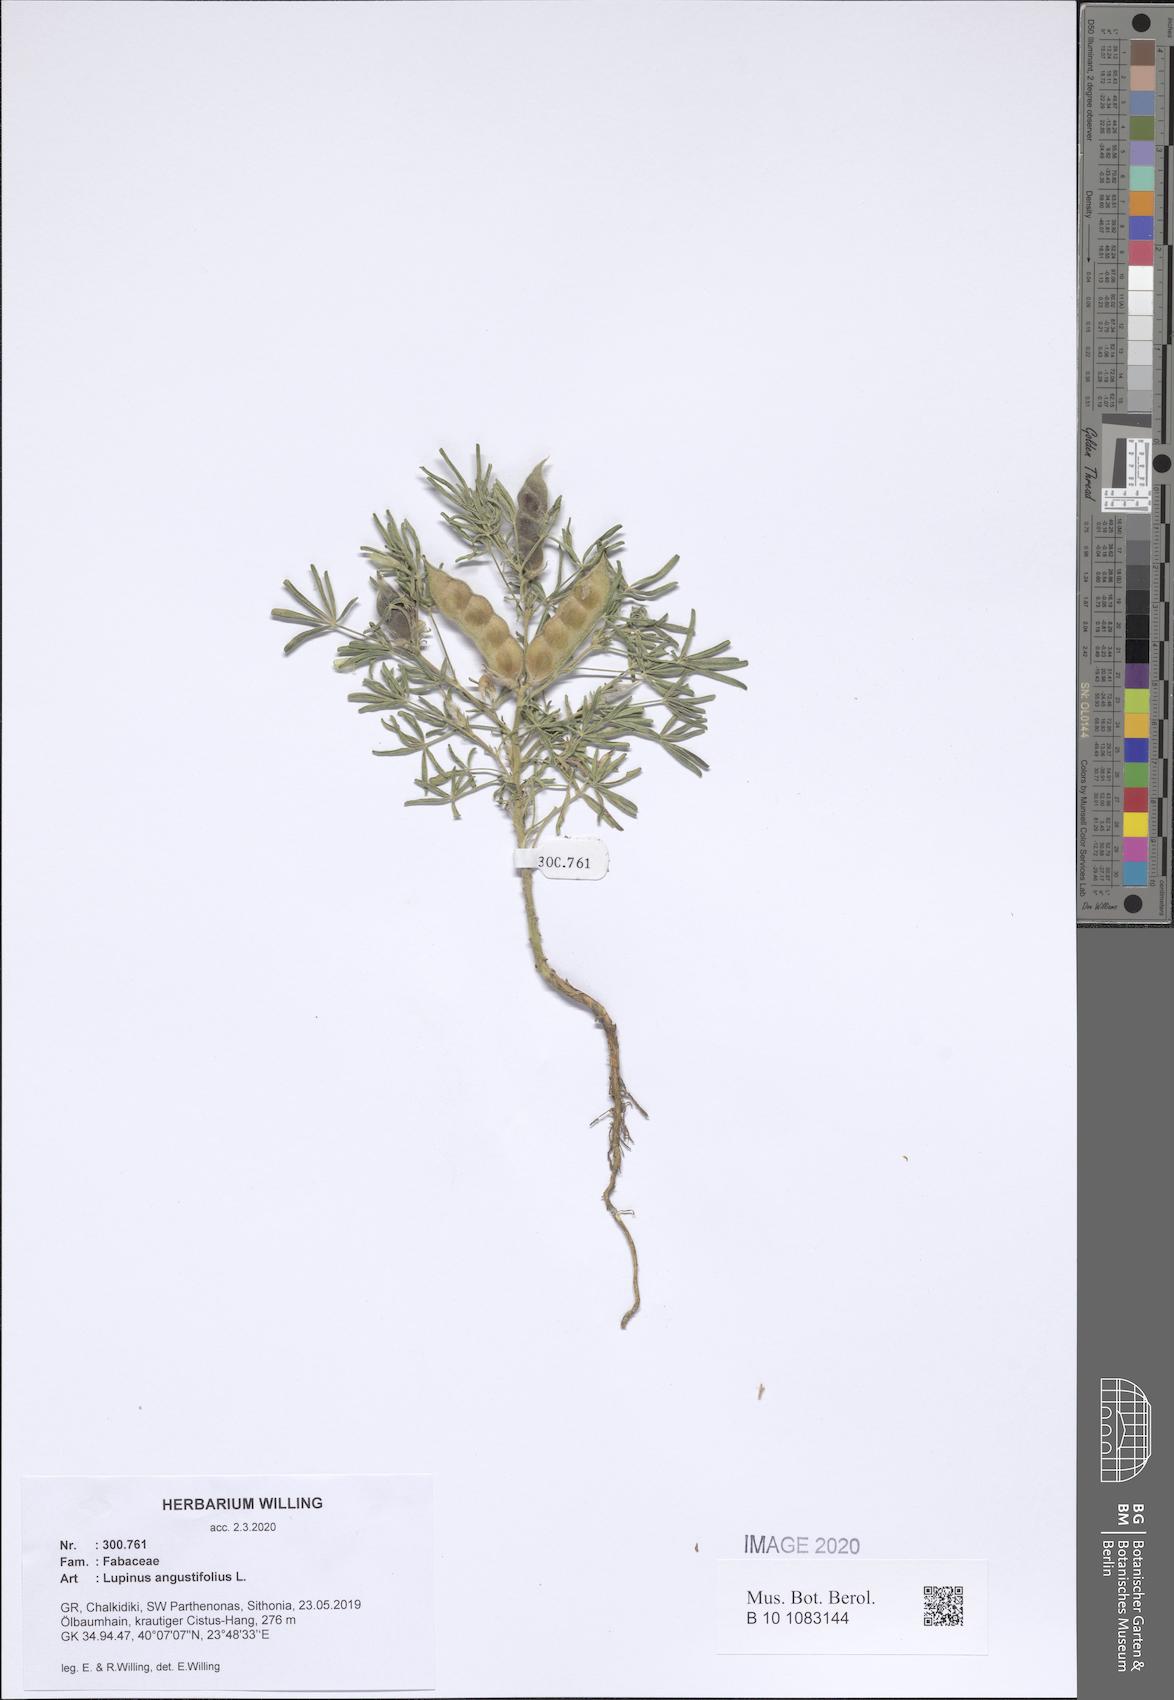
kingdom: Plantae
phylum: Tracheophyta
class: Magnoliopsida
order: Fabales
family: Fabaceae
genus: Lupinus
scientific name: Lupinus angustifolius
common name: Narrow-leaved lupin
